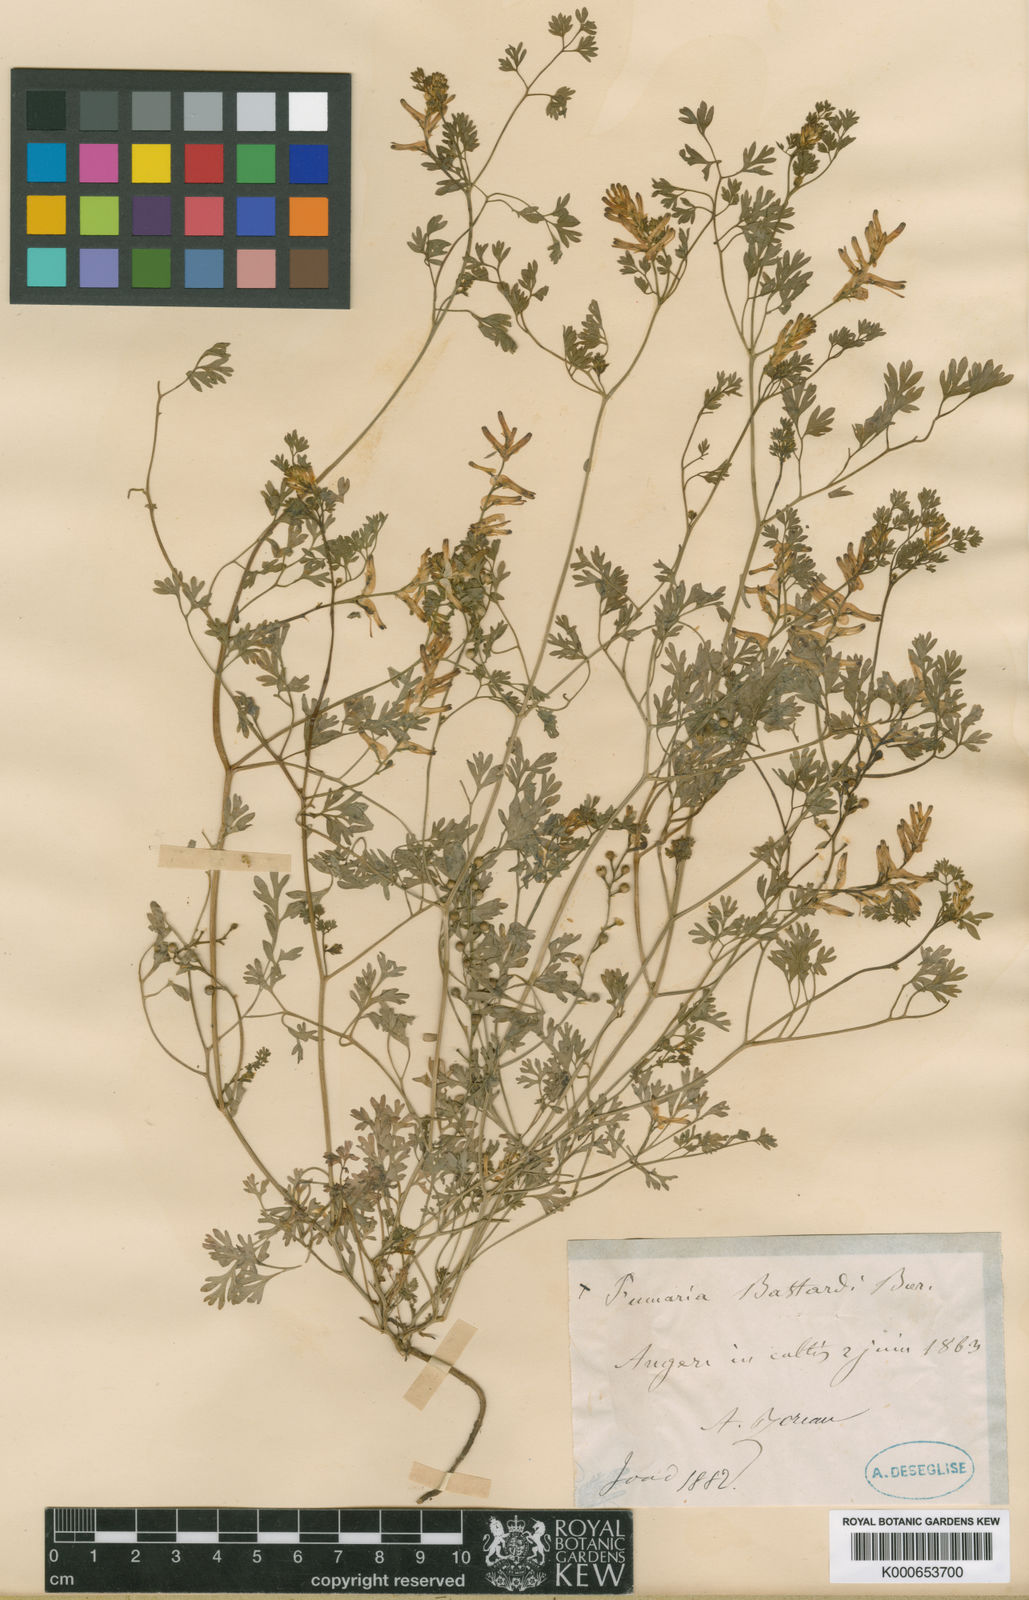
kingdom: Plantae
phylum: Tracheophyta
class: Magnoliopsida
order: Ranunculales
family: Papaveraceae
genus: Fumaria
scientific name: Fumaria bastardii
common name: Tall ramping-fumitory
